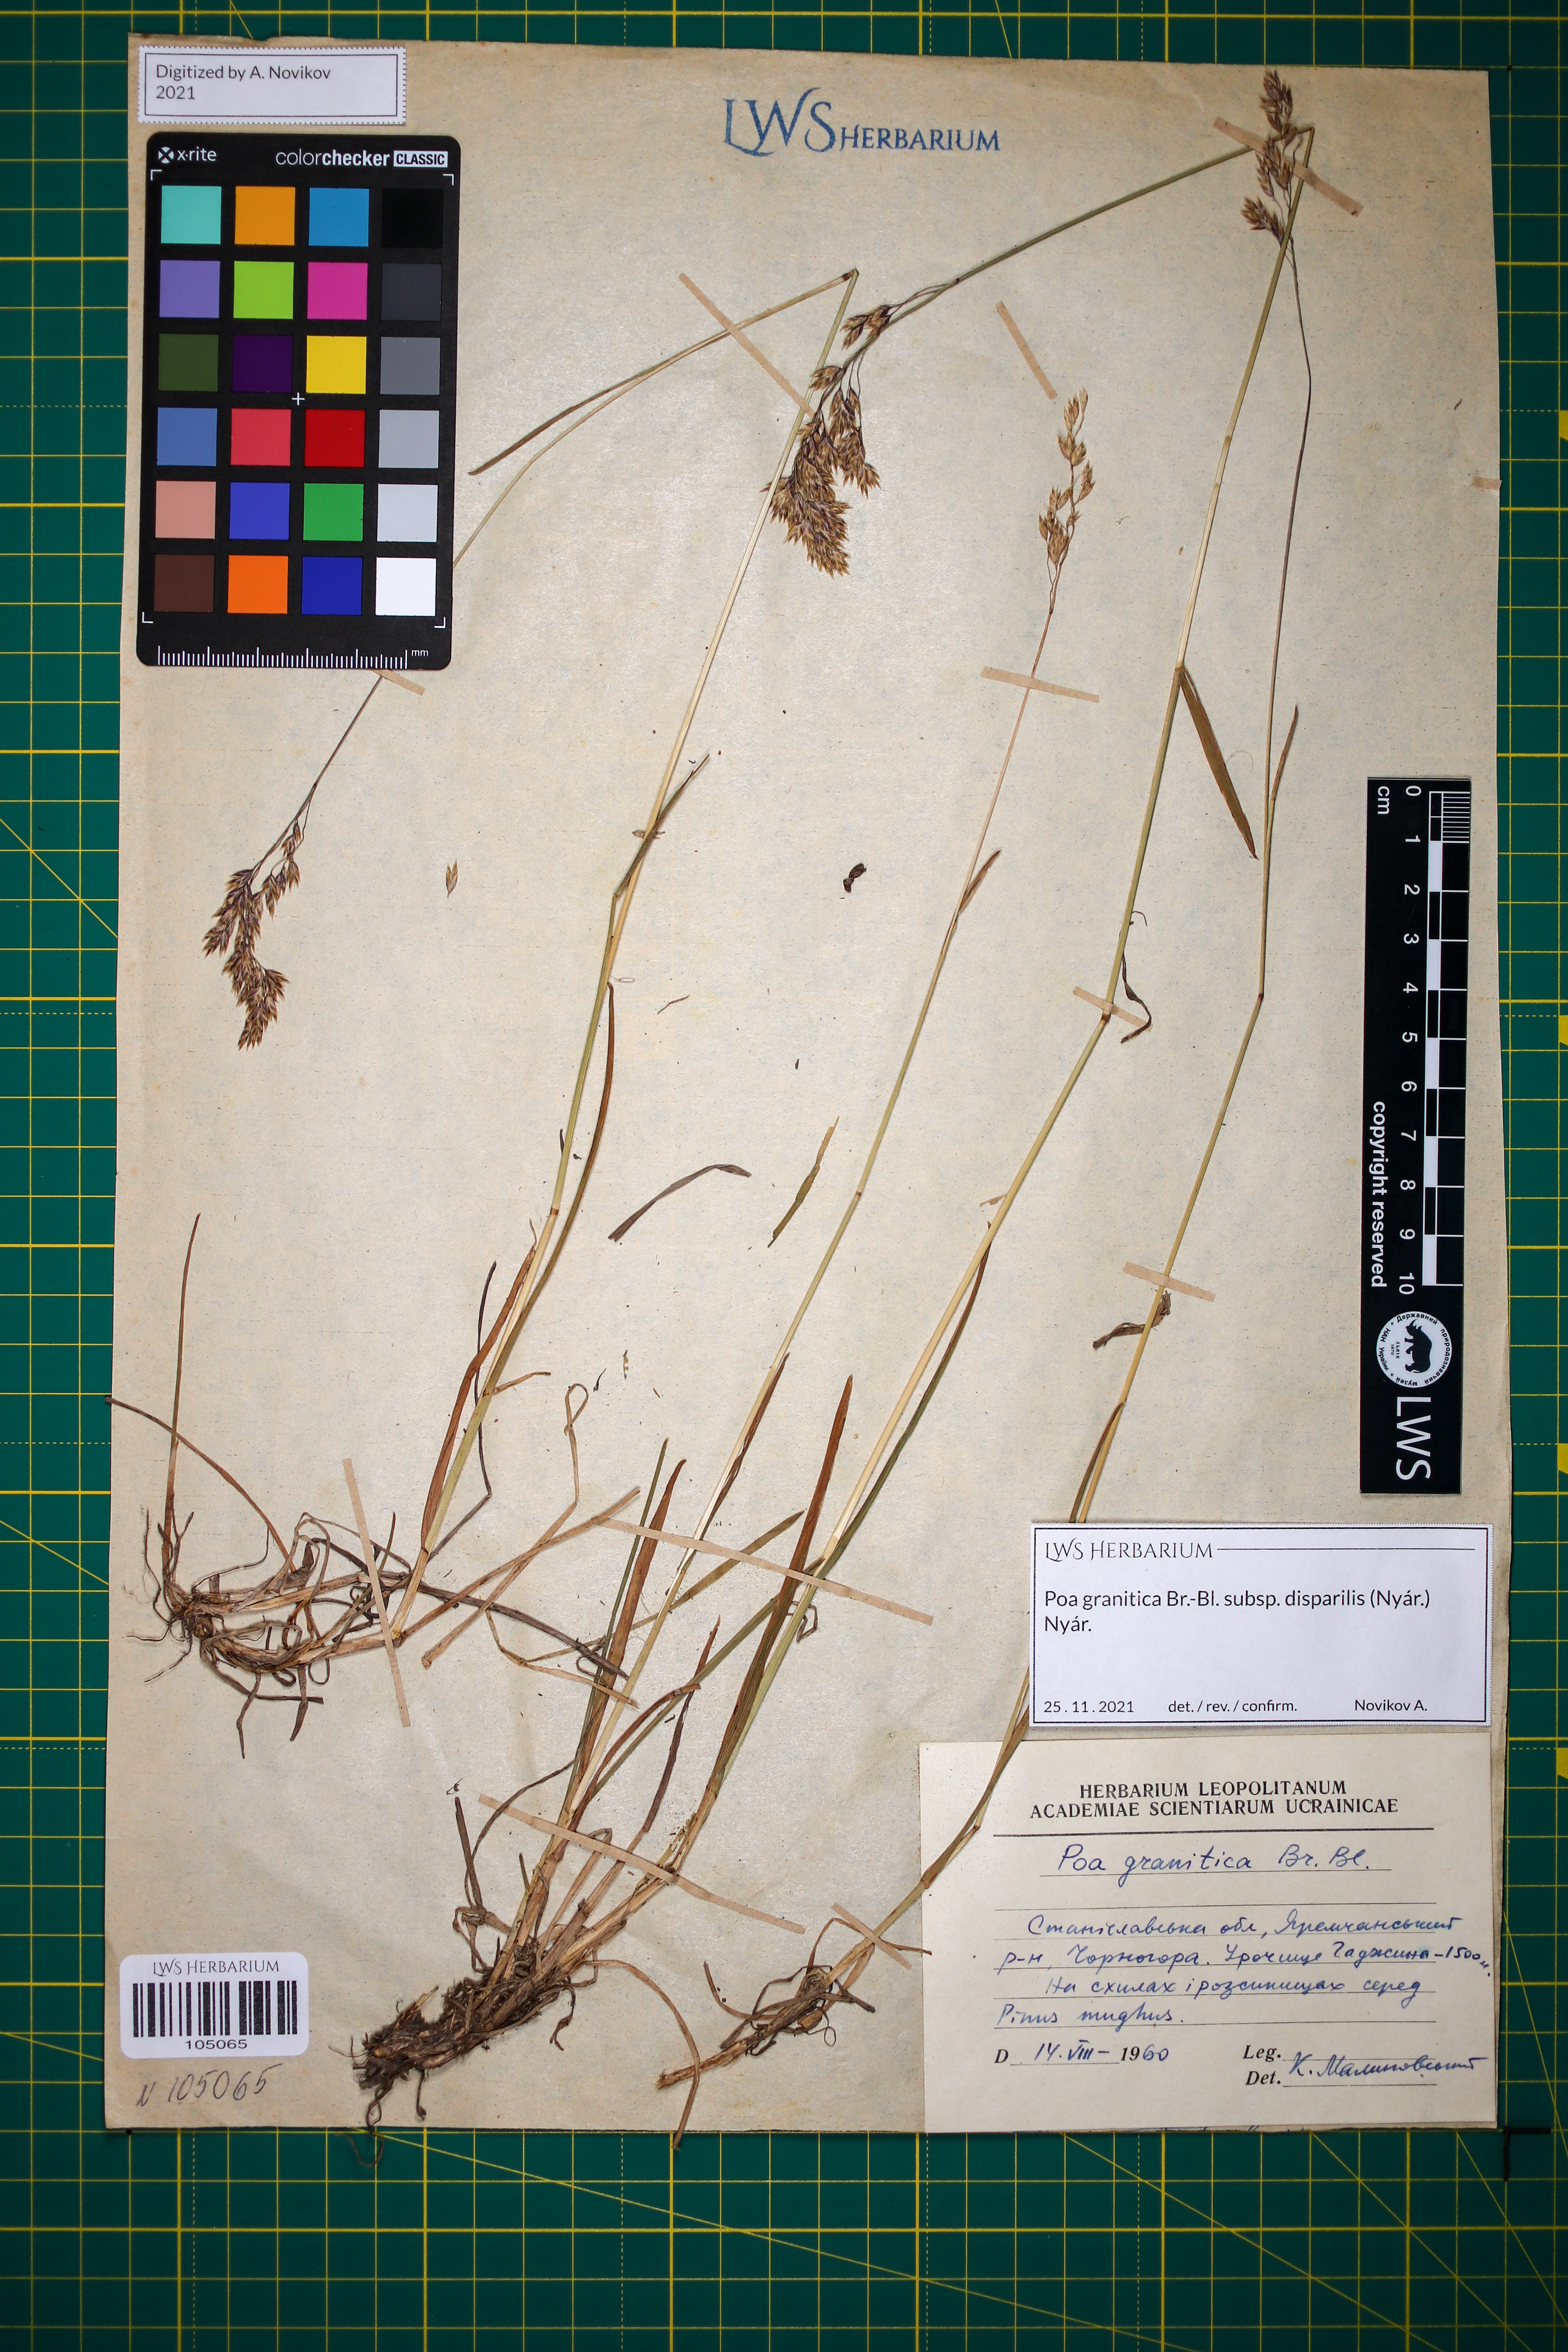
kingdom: Plantae
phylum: Tracheophyta
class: Liliopsida
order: Poales
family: Poaceae
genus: Poa
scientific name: Poa granitica
